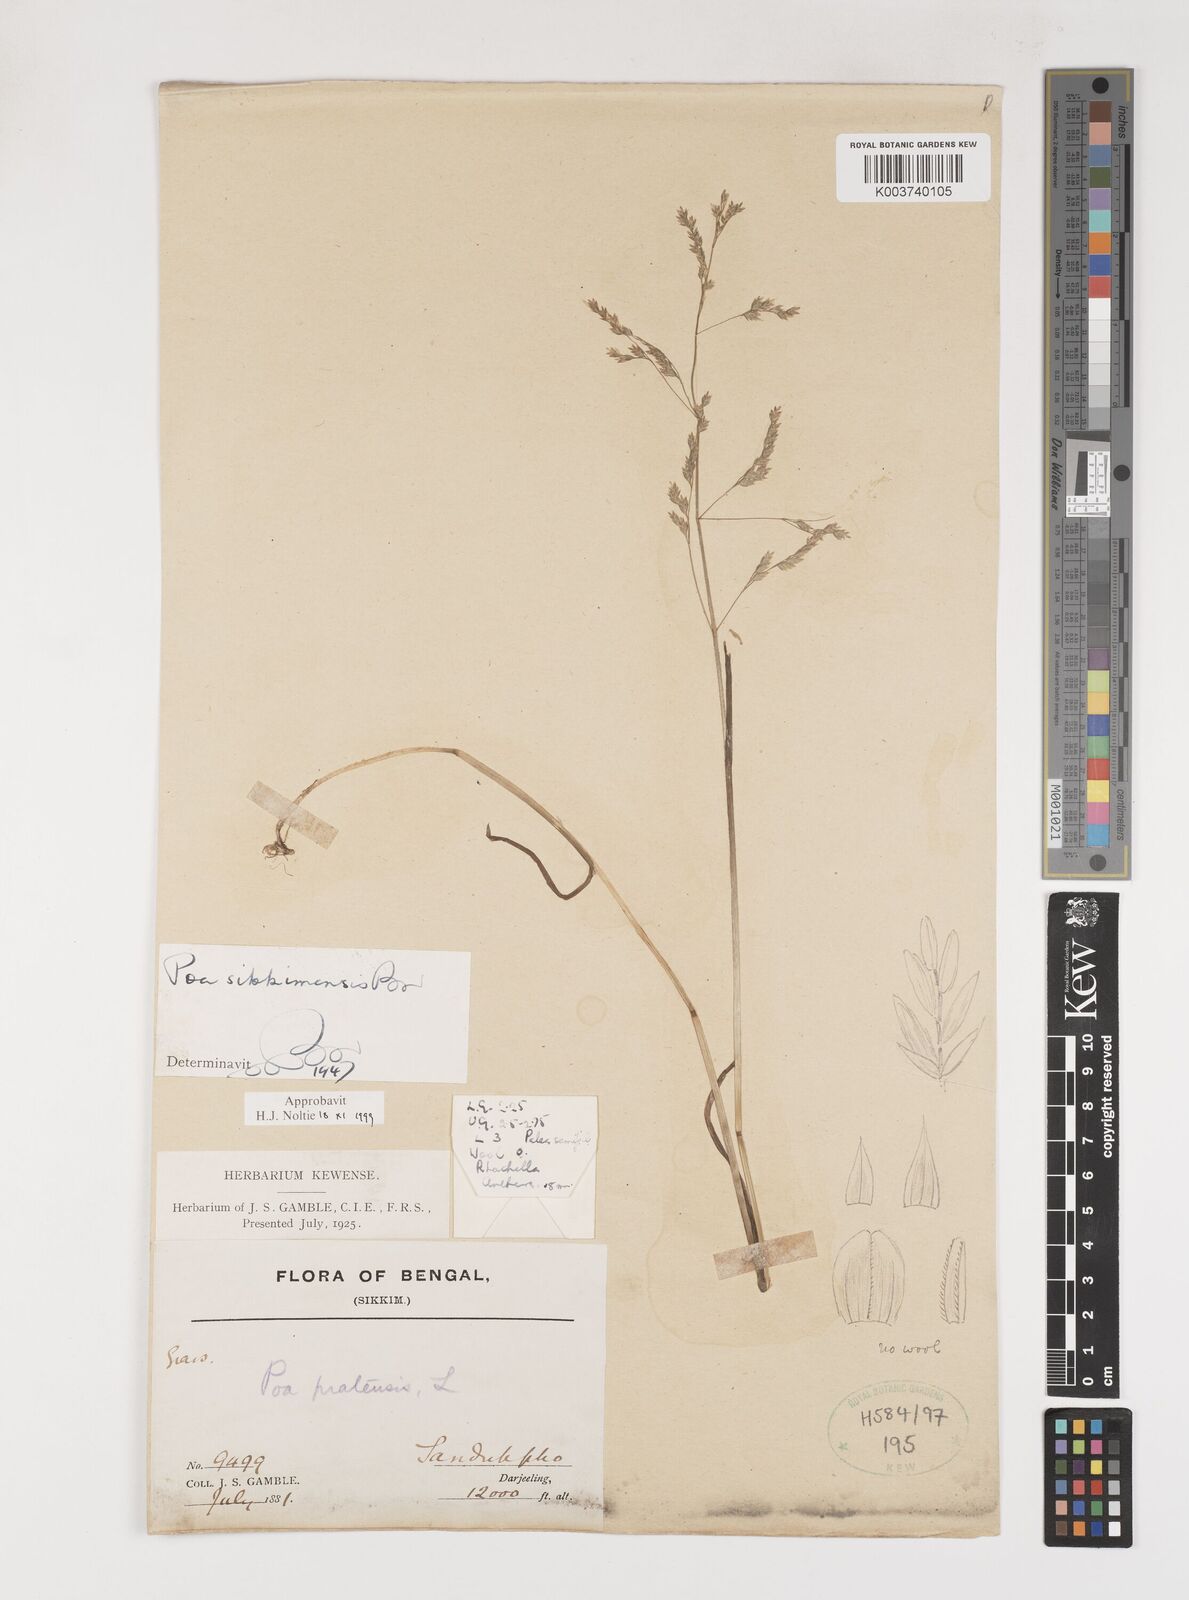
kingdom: Plantae
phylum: Tracheophyta
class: Liliopsida
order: Poales
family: Poaceae
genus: Poa
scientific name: Poa sikkimensis
